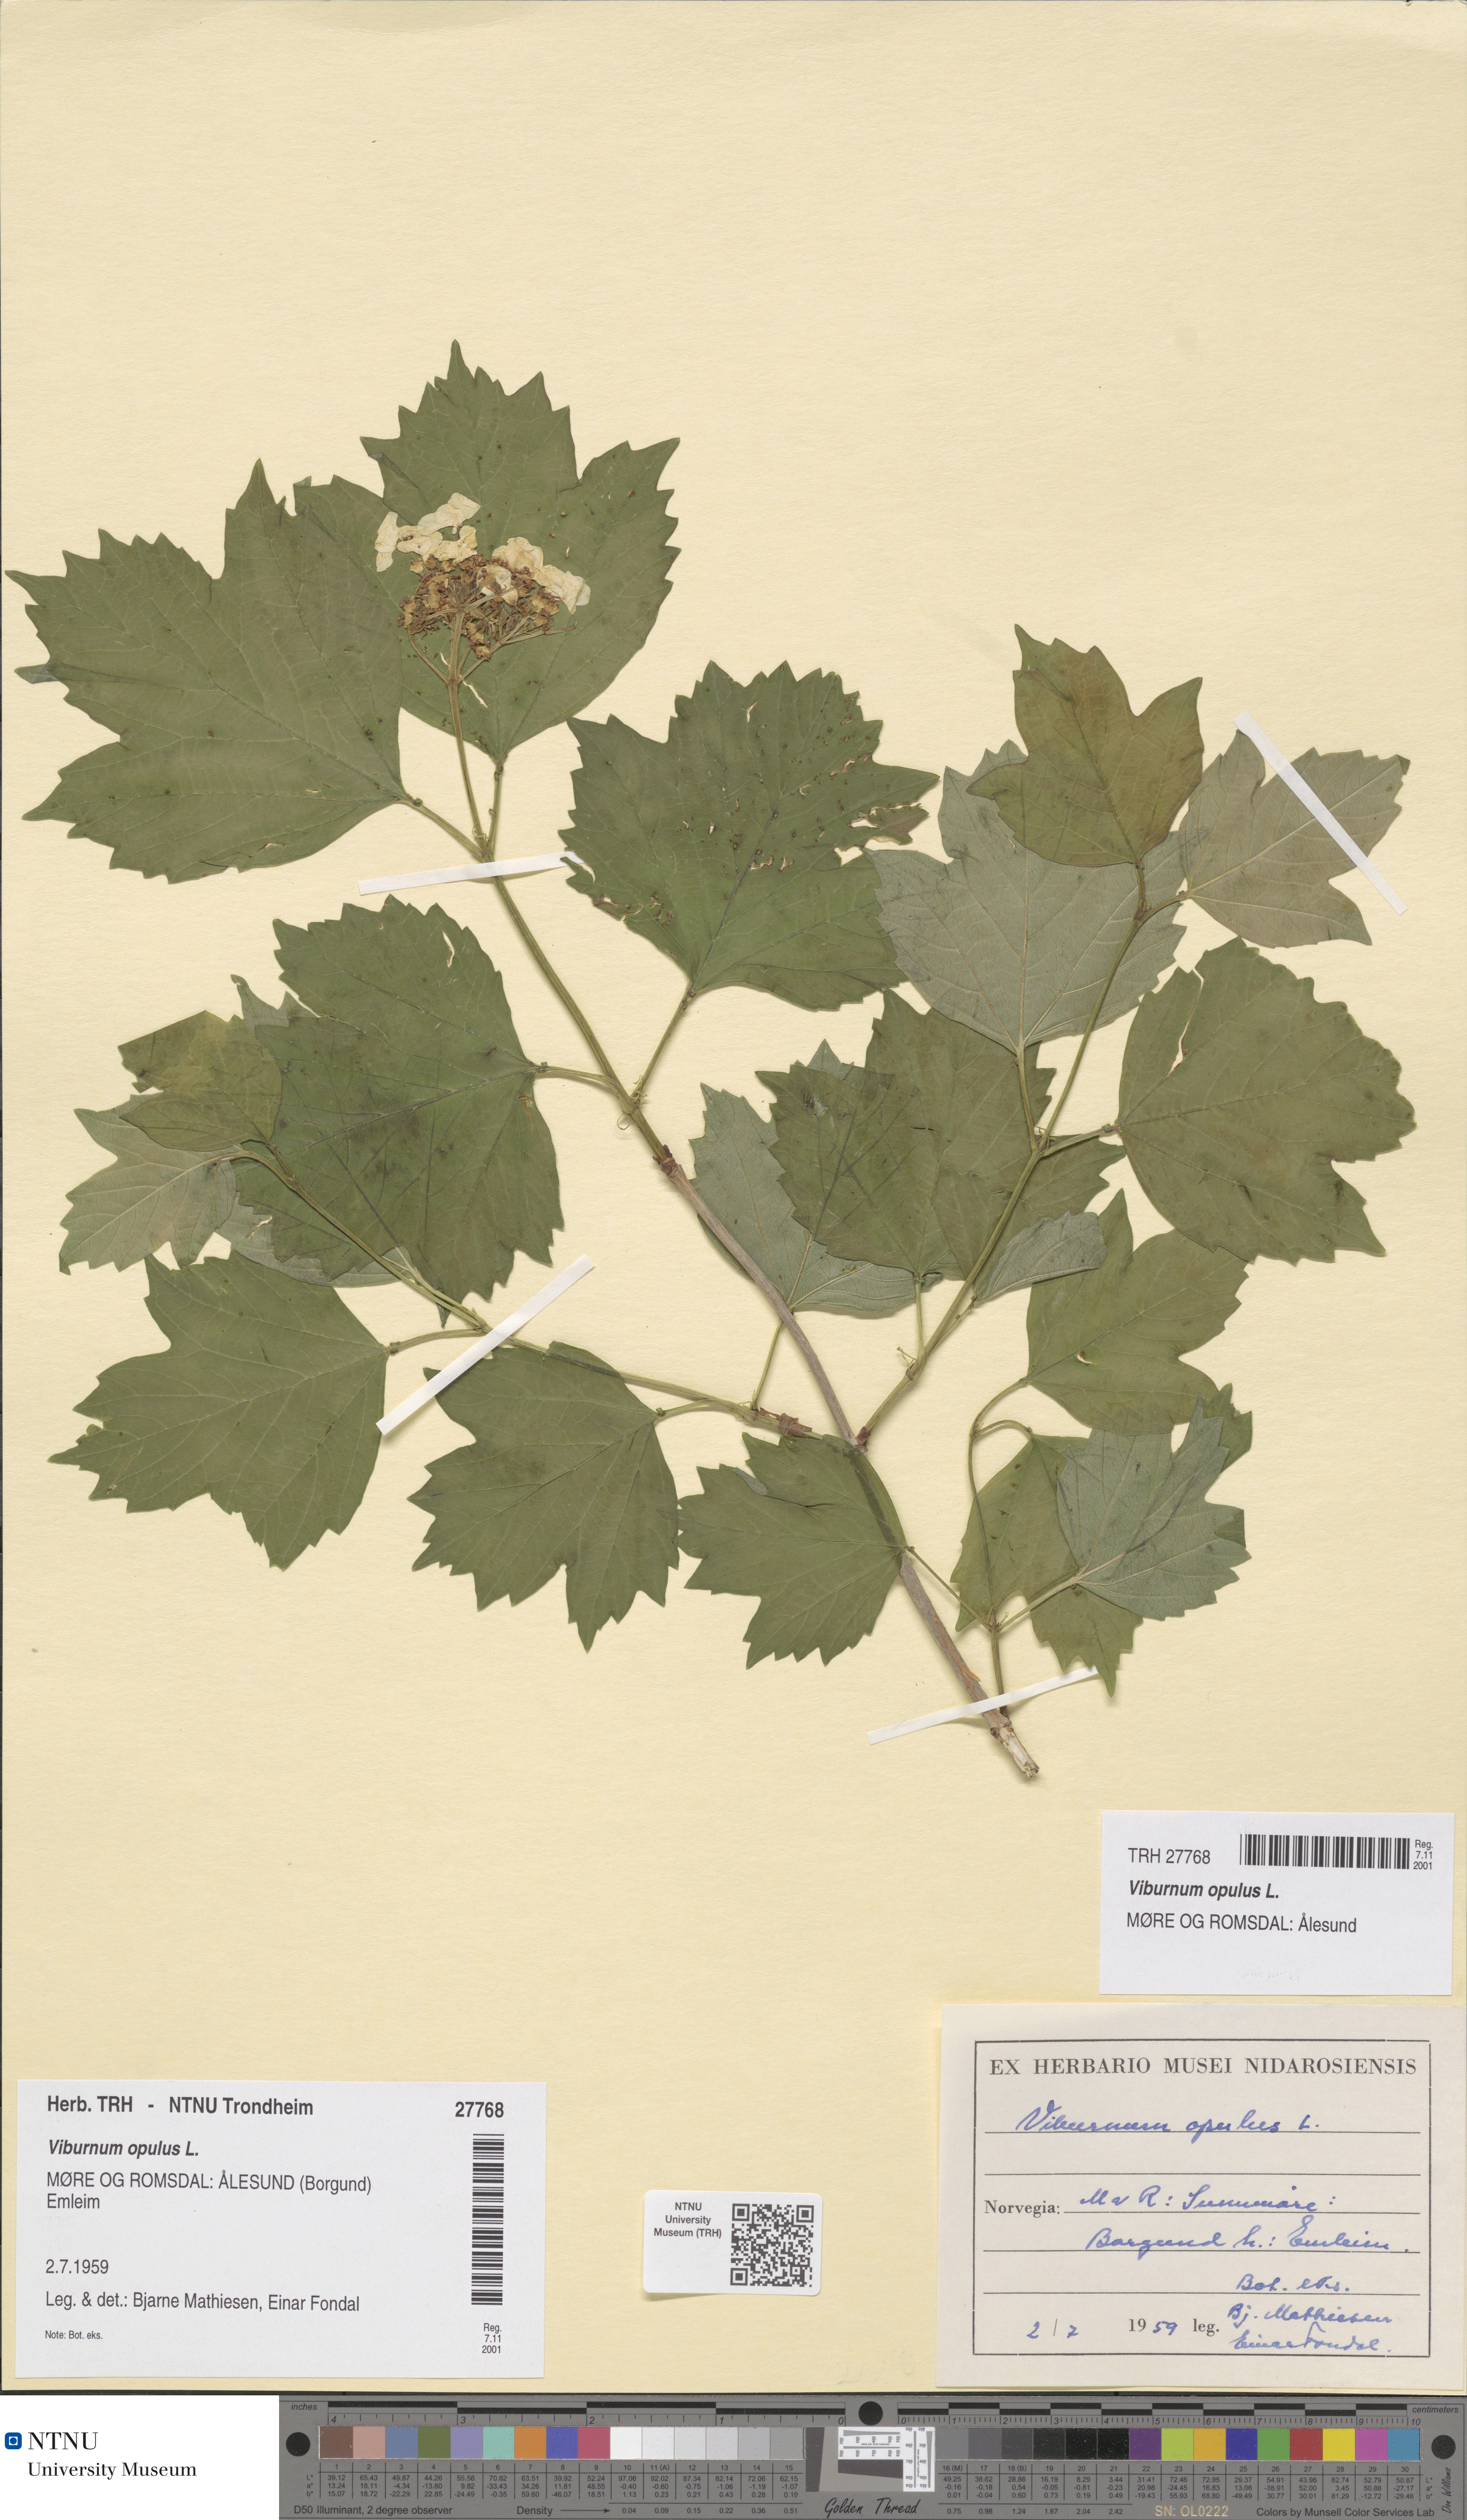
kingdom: Plantae
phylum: Tracheophyta
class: Magnoliopsida
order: Dipsacales
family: Viburnaceae
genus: Viburnum
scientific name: Viburnum opulus
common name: Guelder-rose
